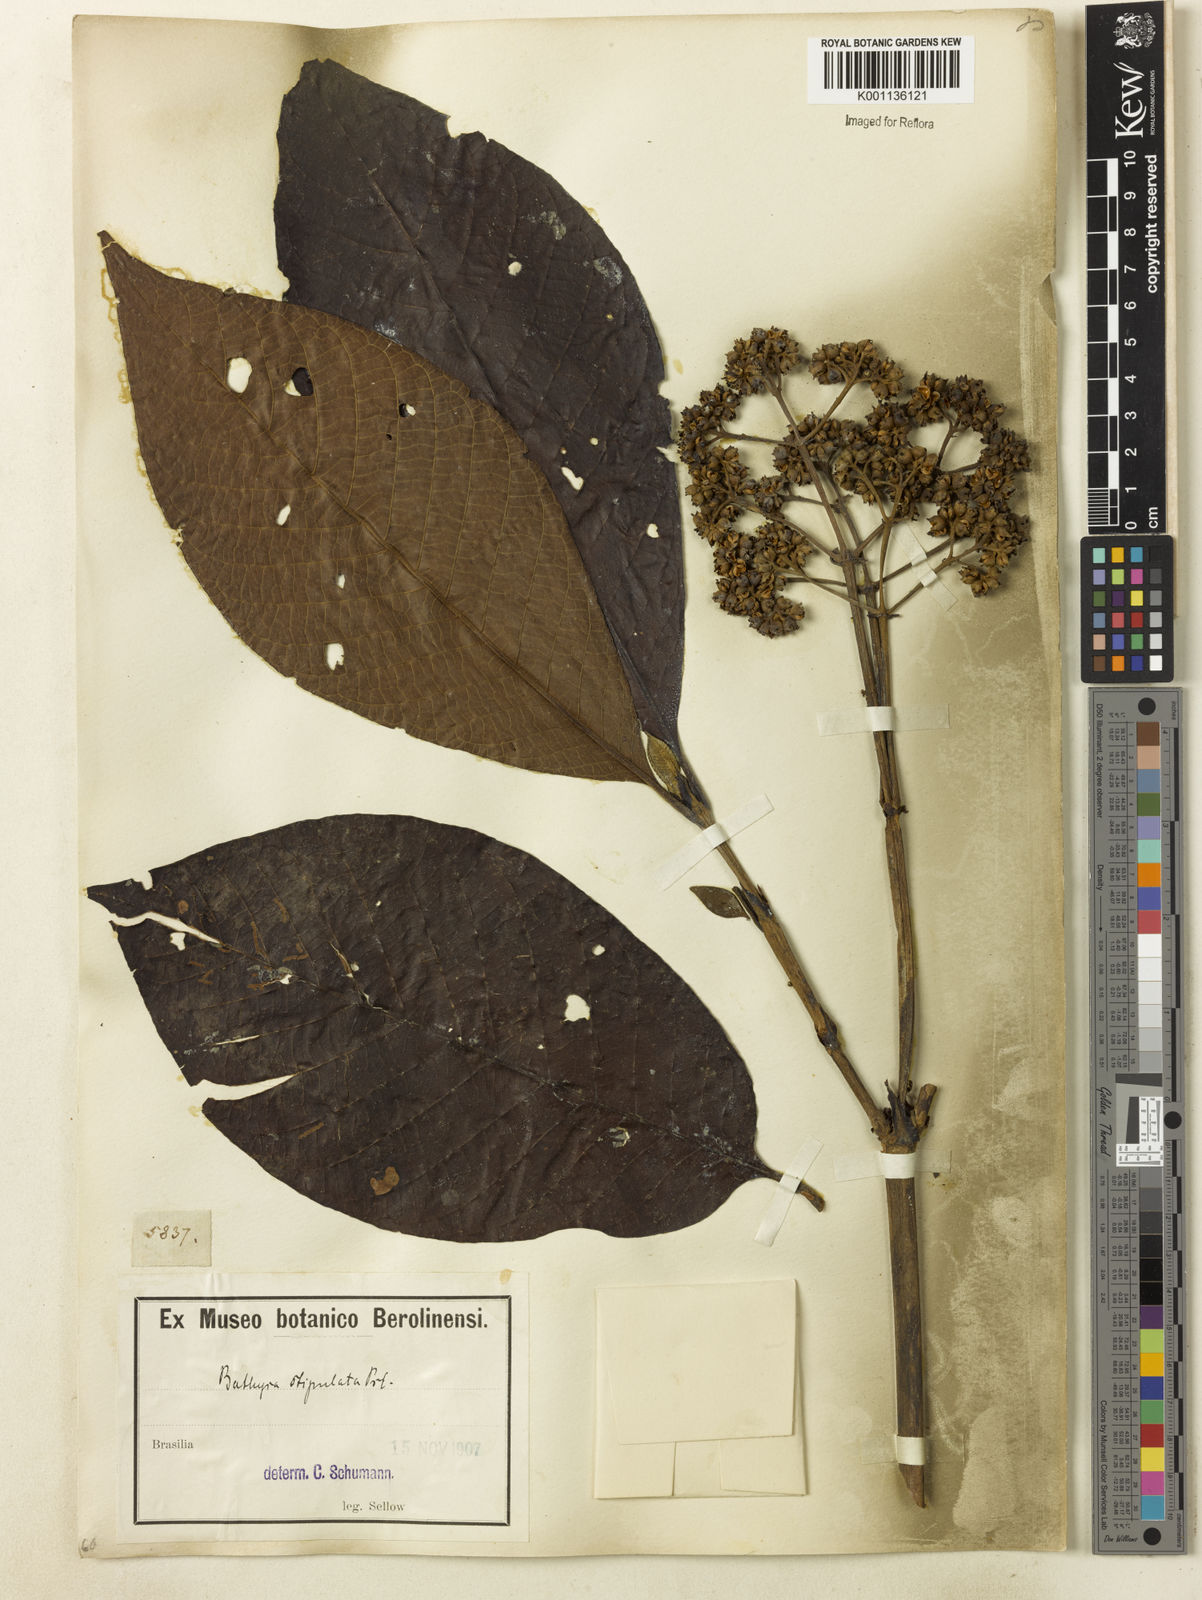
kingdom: Plantae
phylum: Tracheophyta
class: Magnoliopsida
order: Gentianales
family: Rubiaceae
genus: Bathysa
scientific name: Bathysa stipulata
